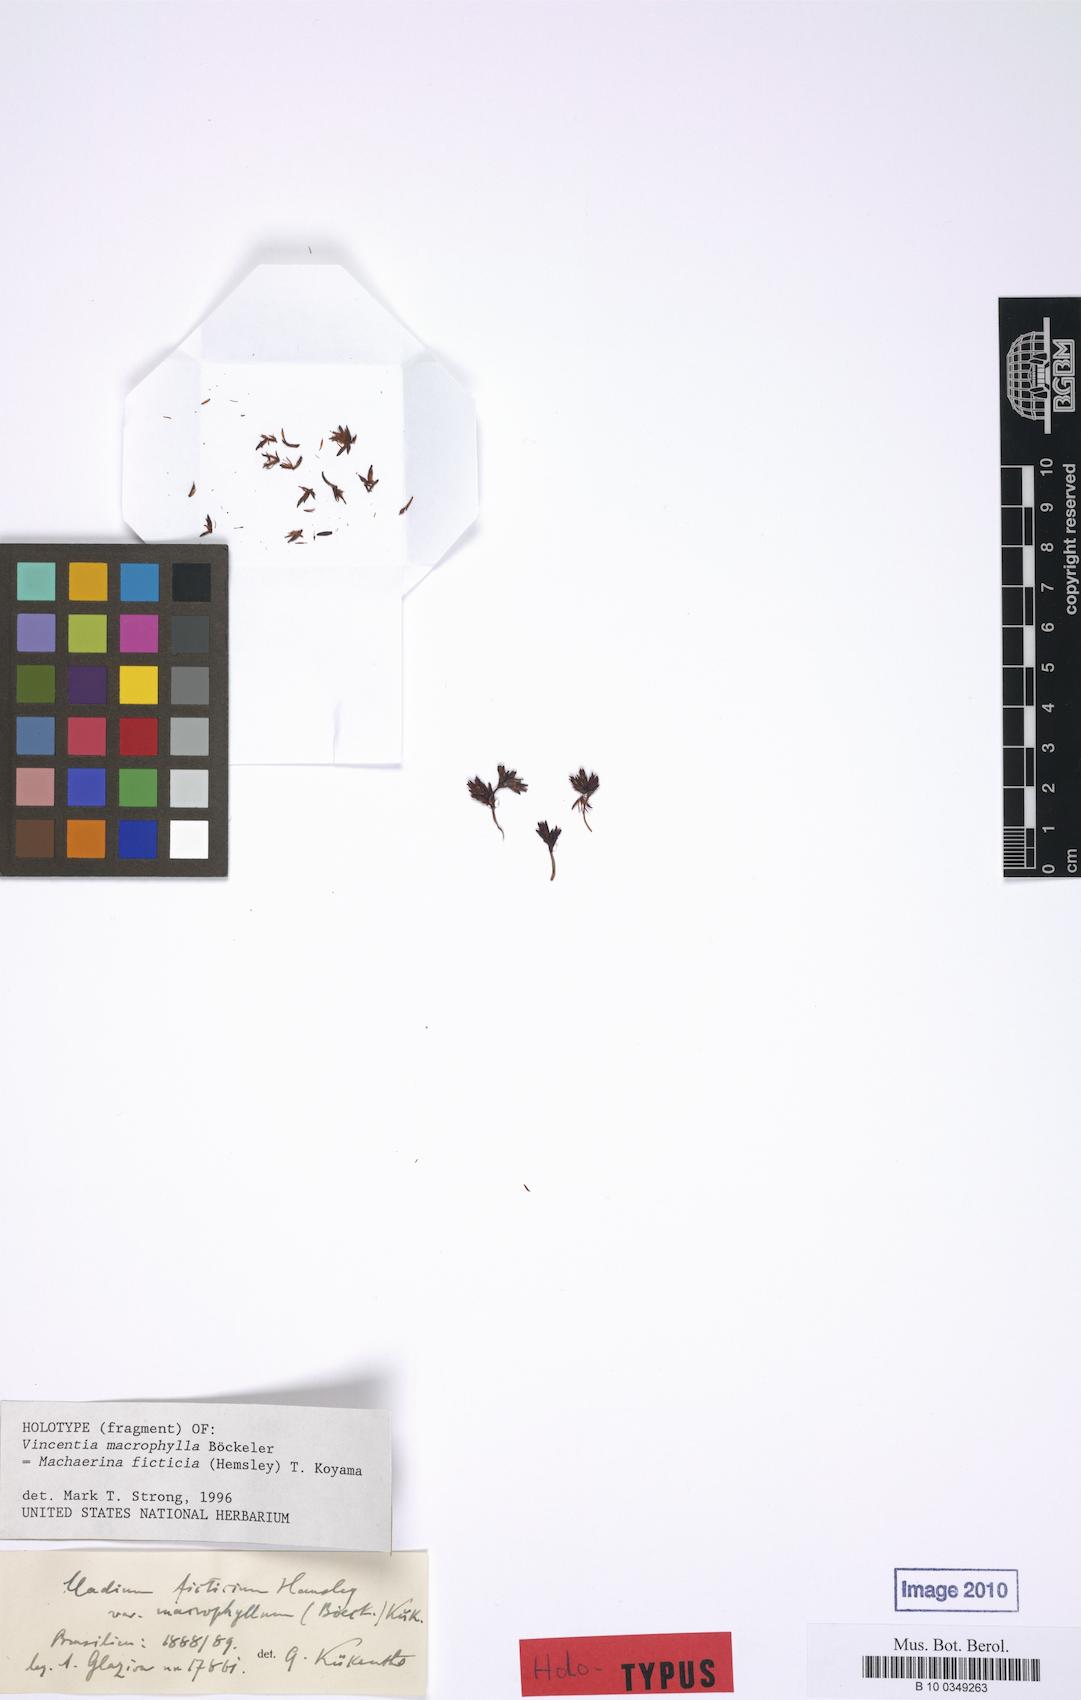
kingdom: Plantae
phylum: Tracheophyta
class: Liliopsida
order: Poales
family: Cyperaceae
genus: Machaerina
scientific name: Machaerina ficticia
